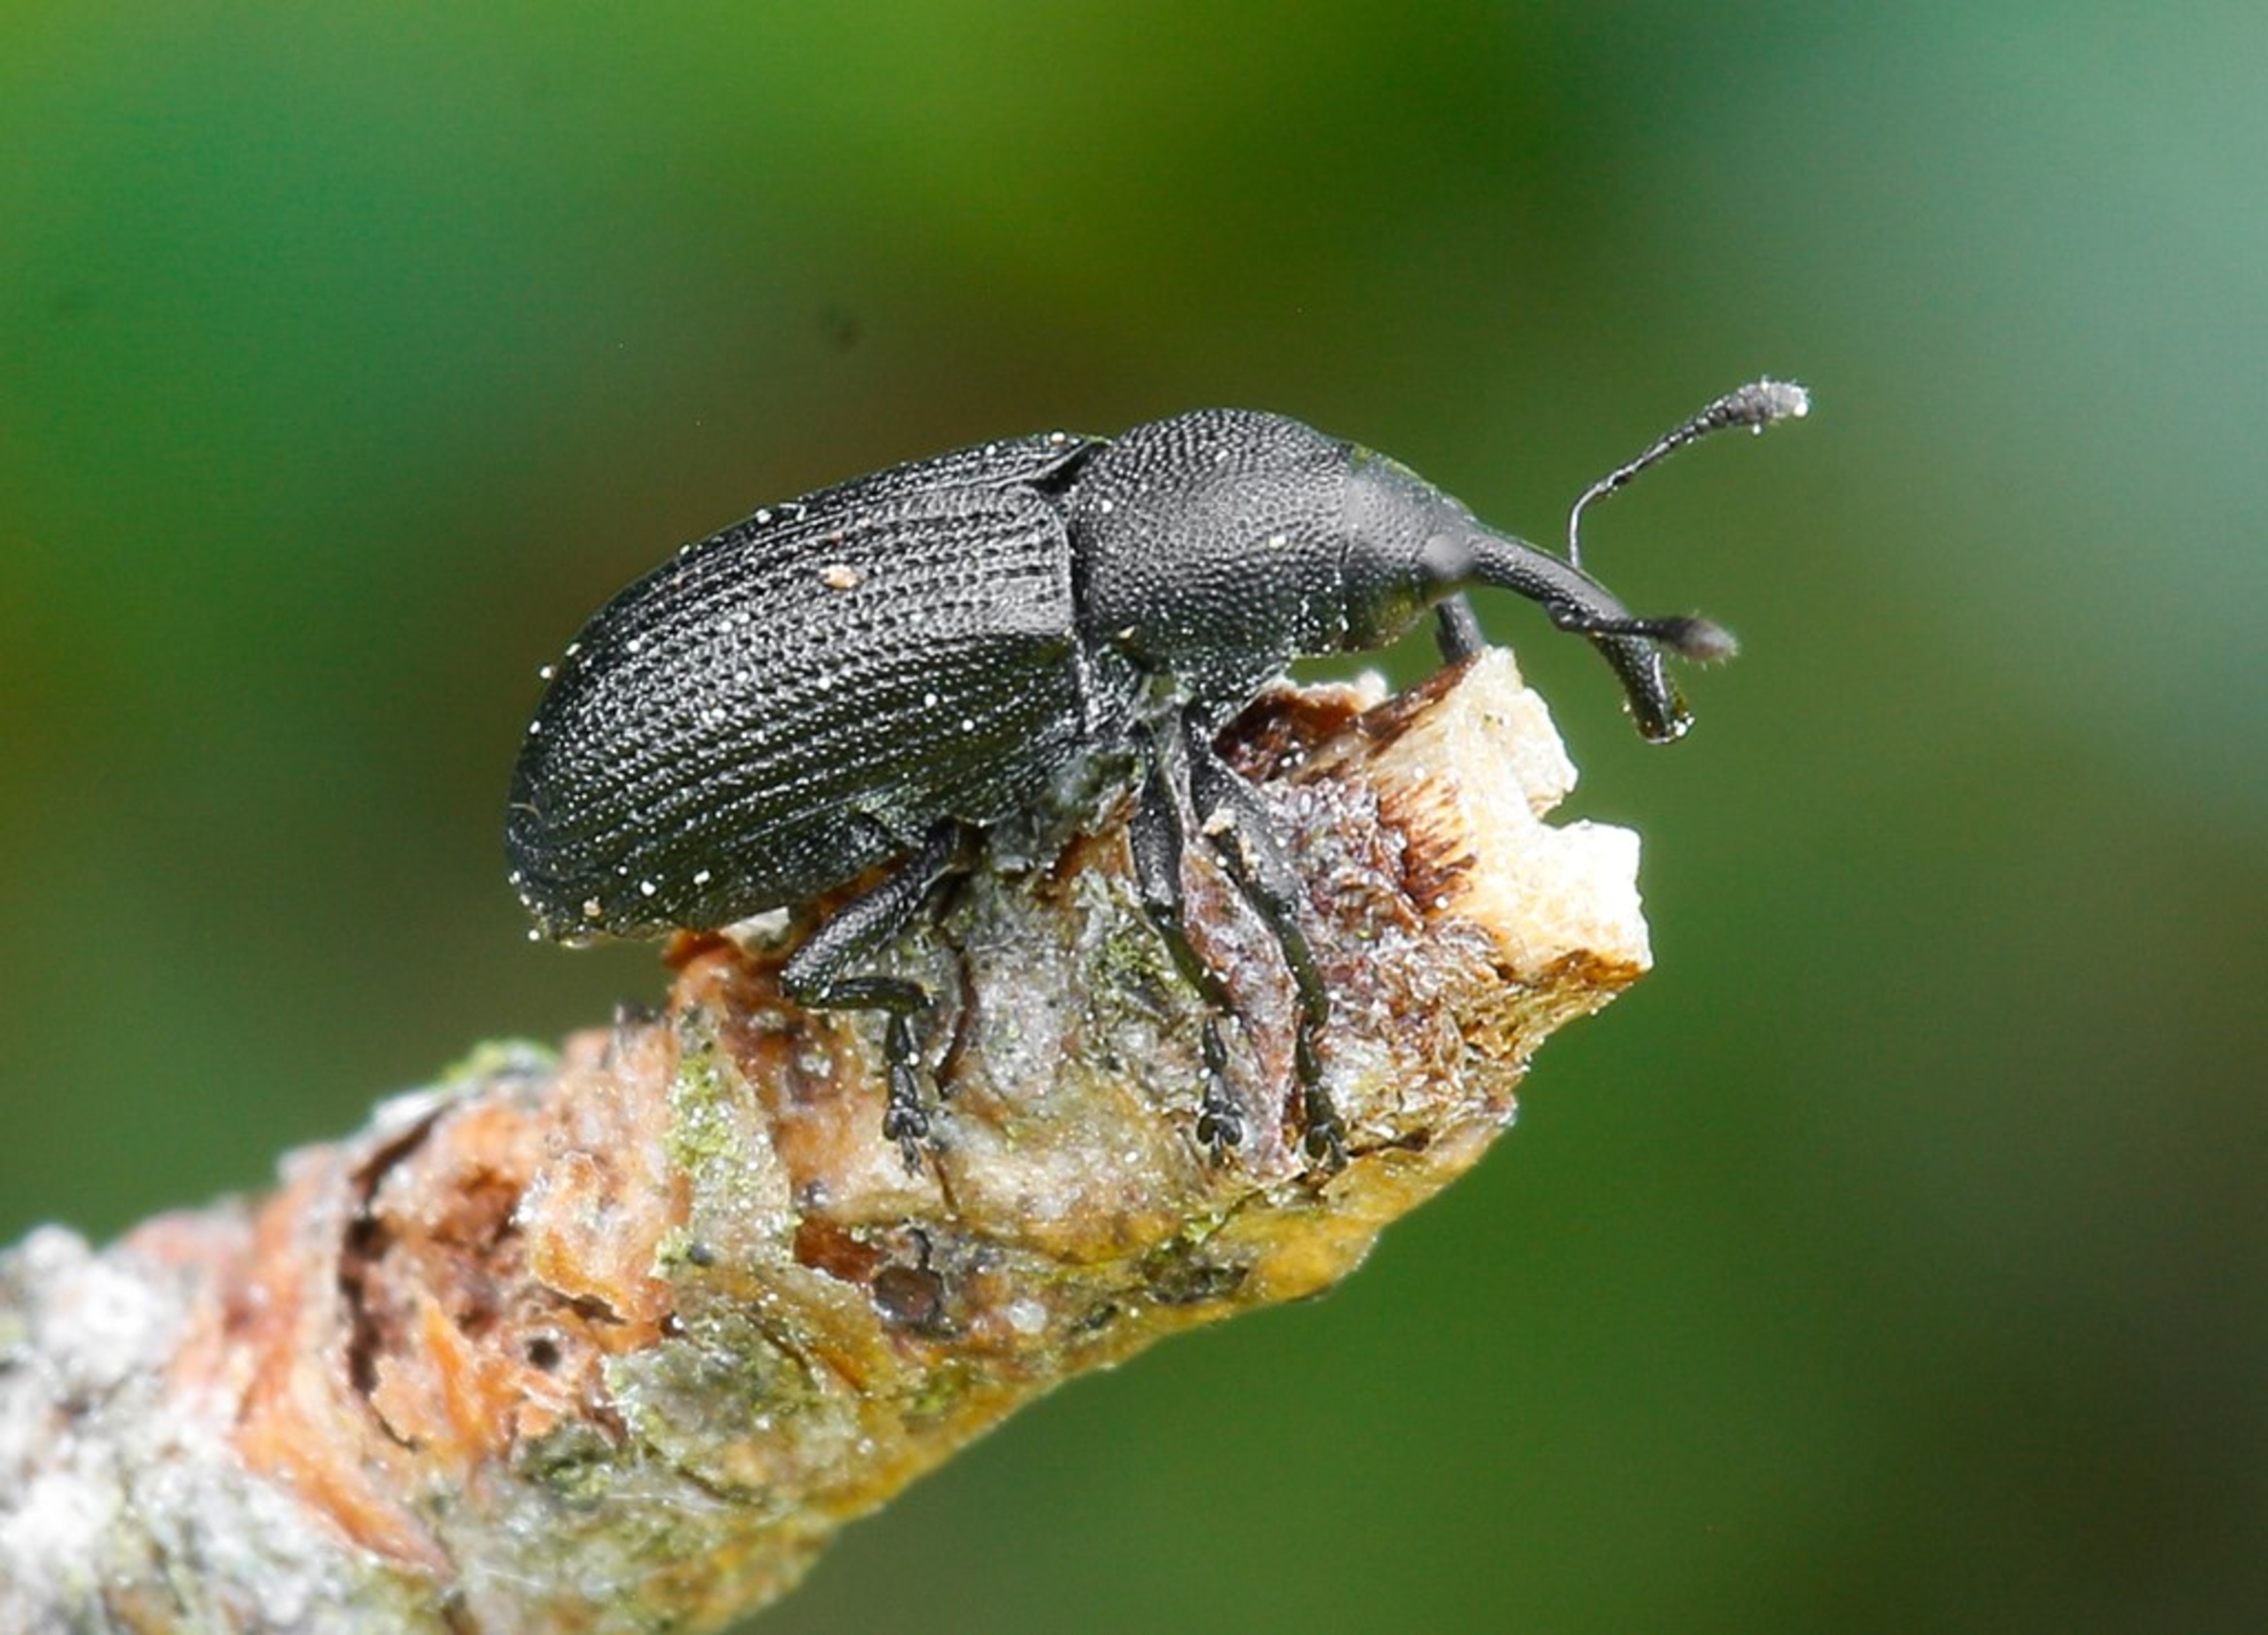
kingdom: Animalia
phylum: Arthropoda
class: Insecta
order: Coleoptera
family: Curculionidae
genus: Magdalis
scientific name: Magdalis linearis
